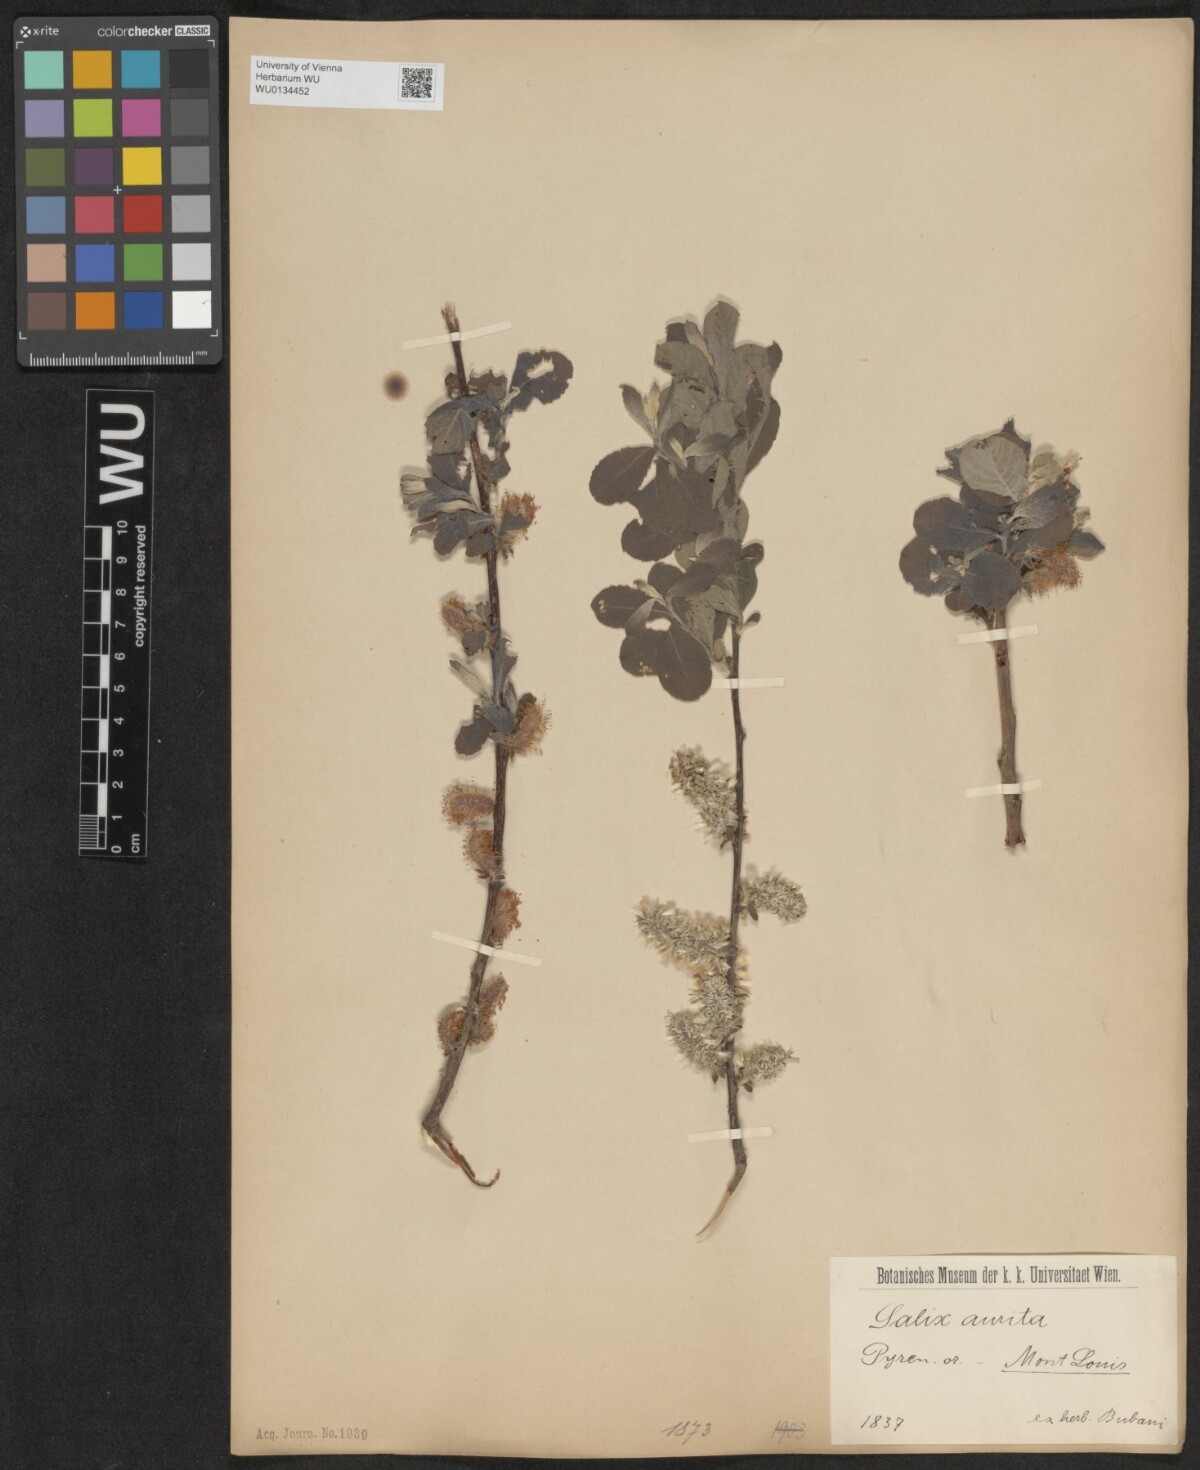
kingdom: Plantae
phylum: Tracheophyta
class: Magnoliopsida
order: Malpighiales
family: Salicaceae
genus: Salix
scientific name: Salix aurita
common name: Eared willow
